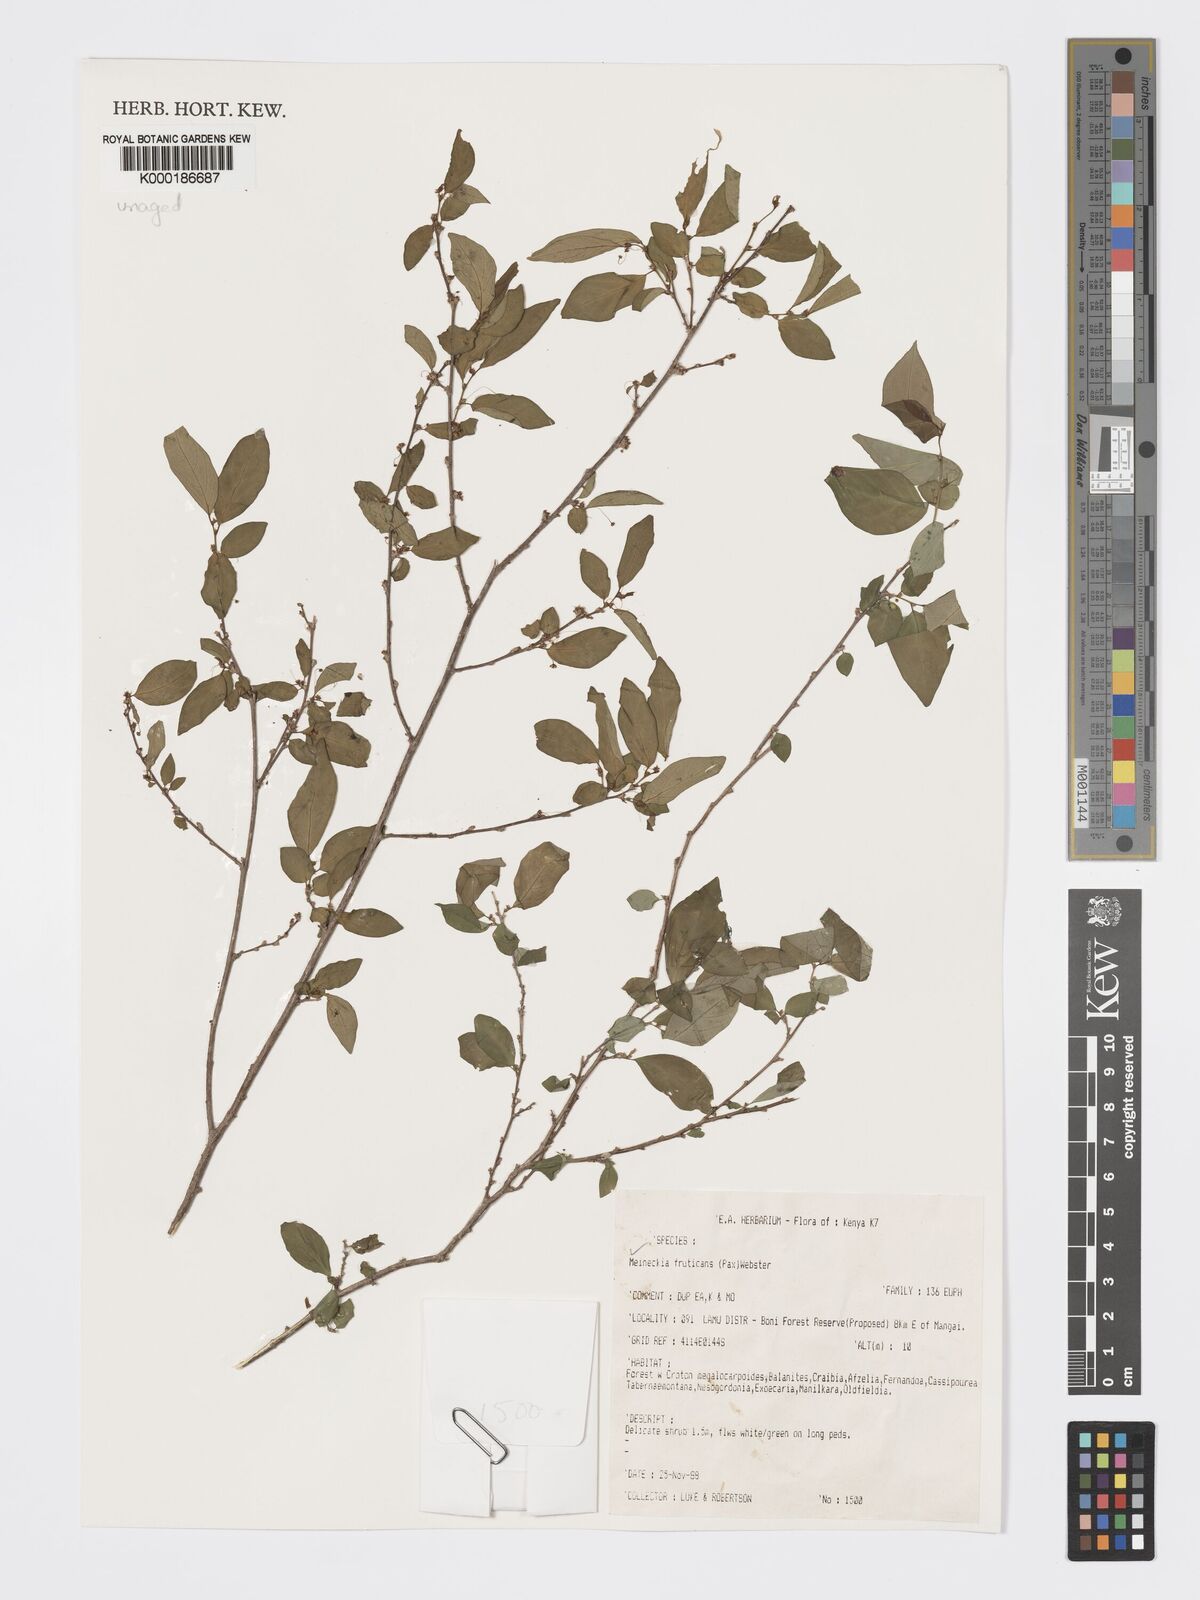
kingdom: Plantae
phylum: Tracheophyta
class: Magnoliopsida
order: Malpighiales
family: Phyllanthaceae
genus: Meineckia
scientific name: Meineckia fruticans
